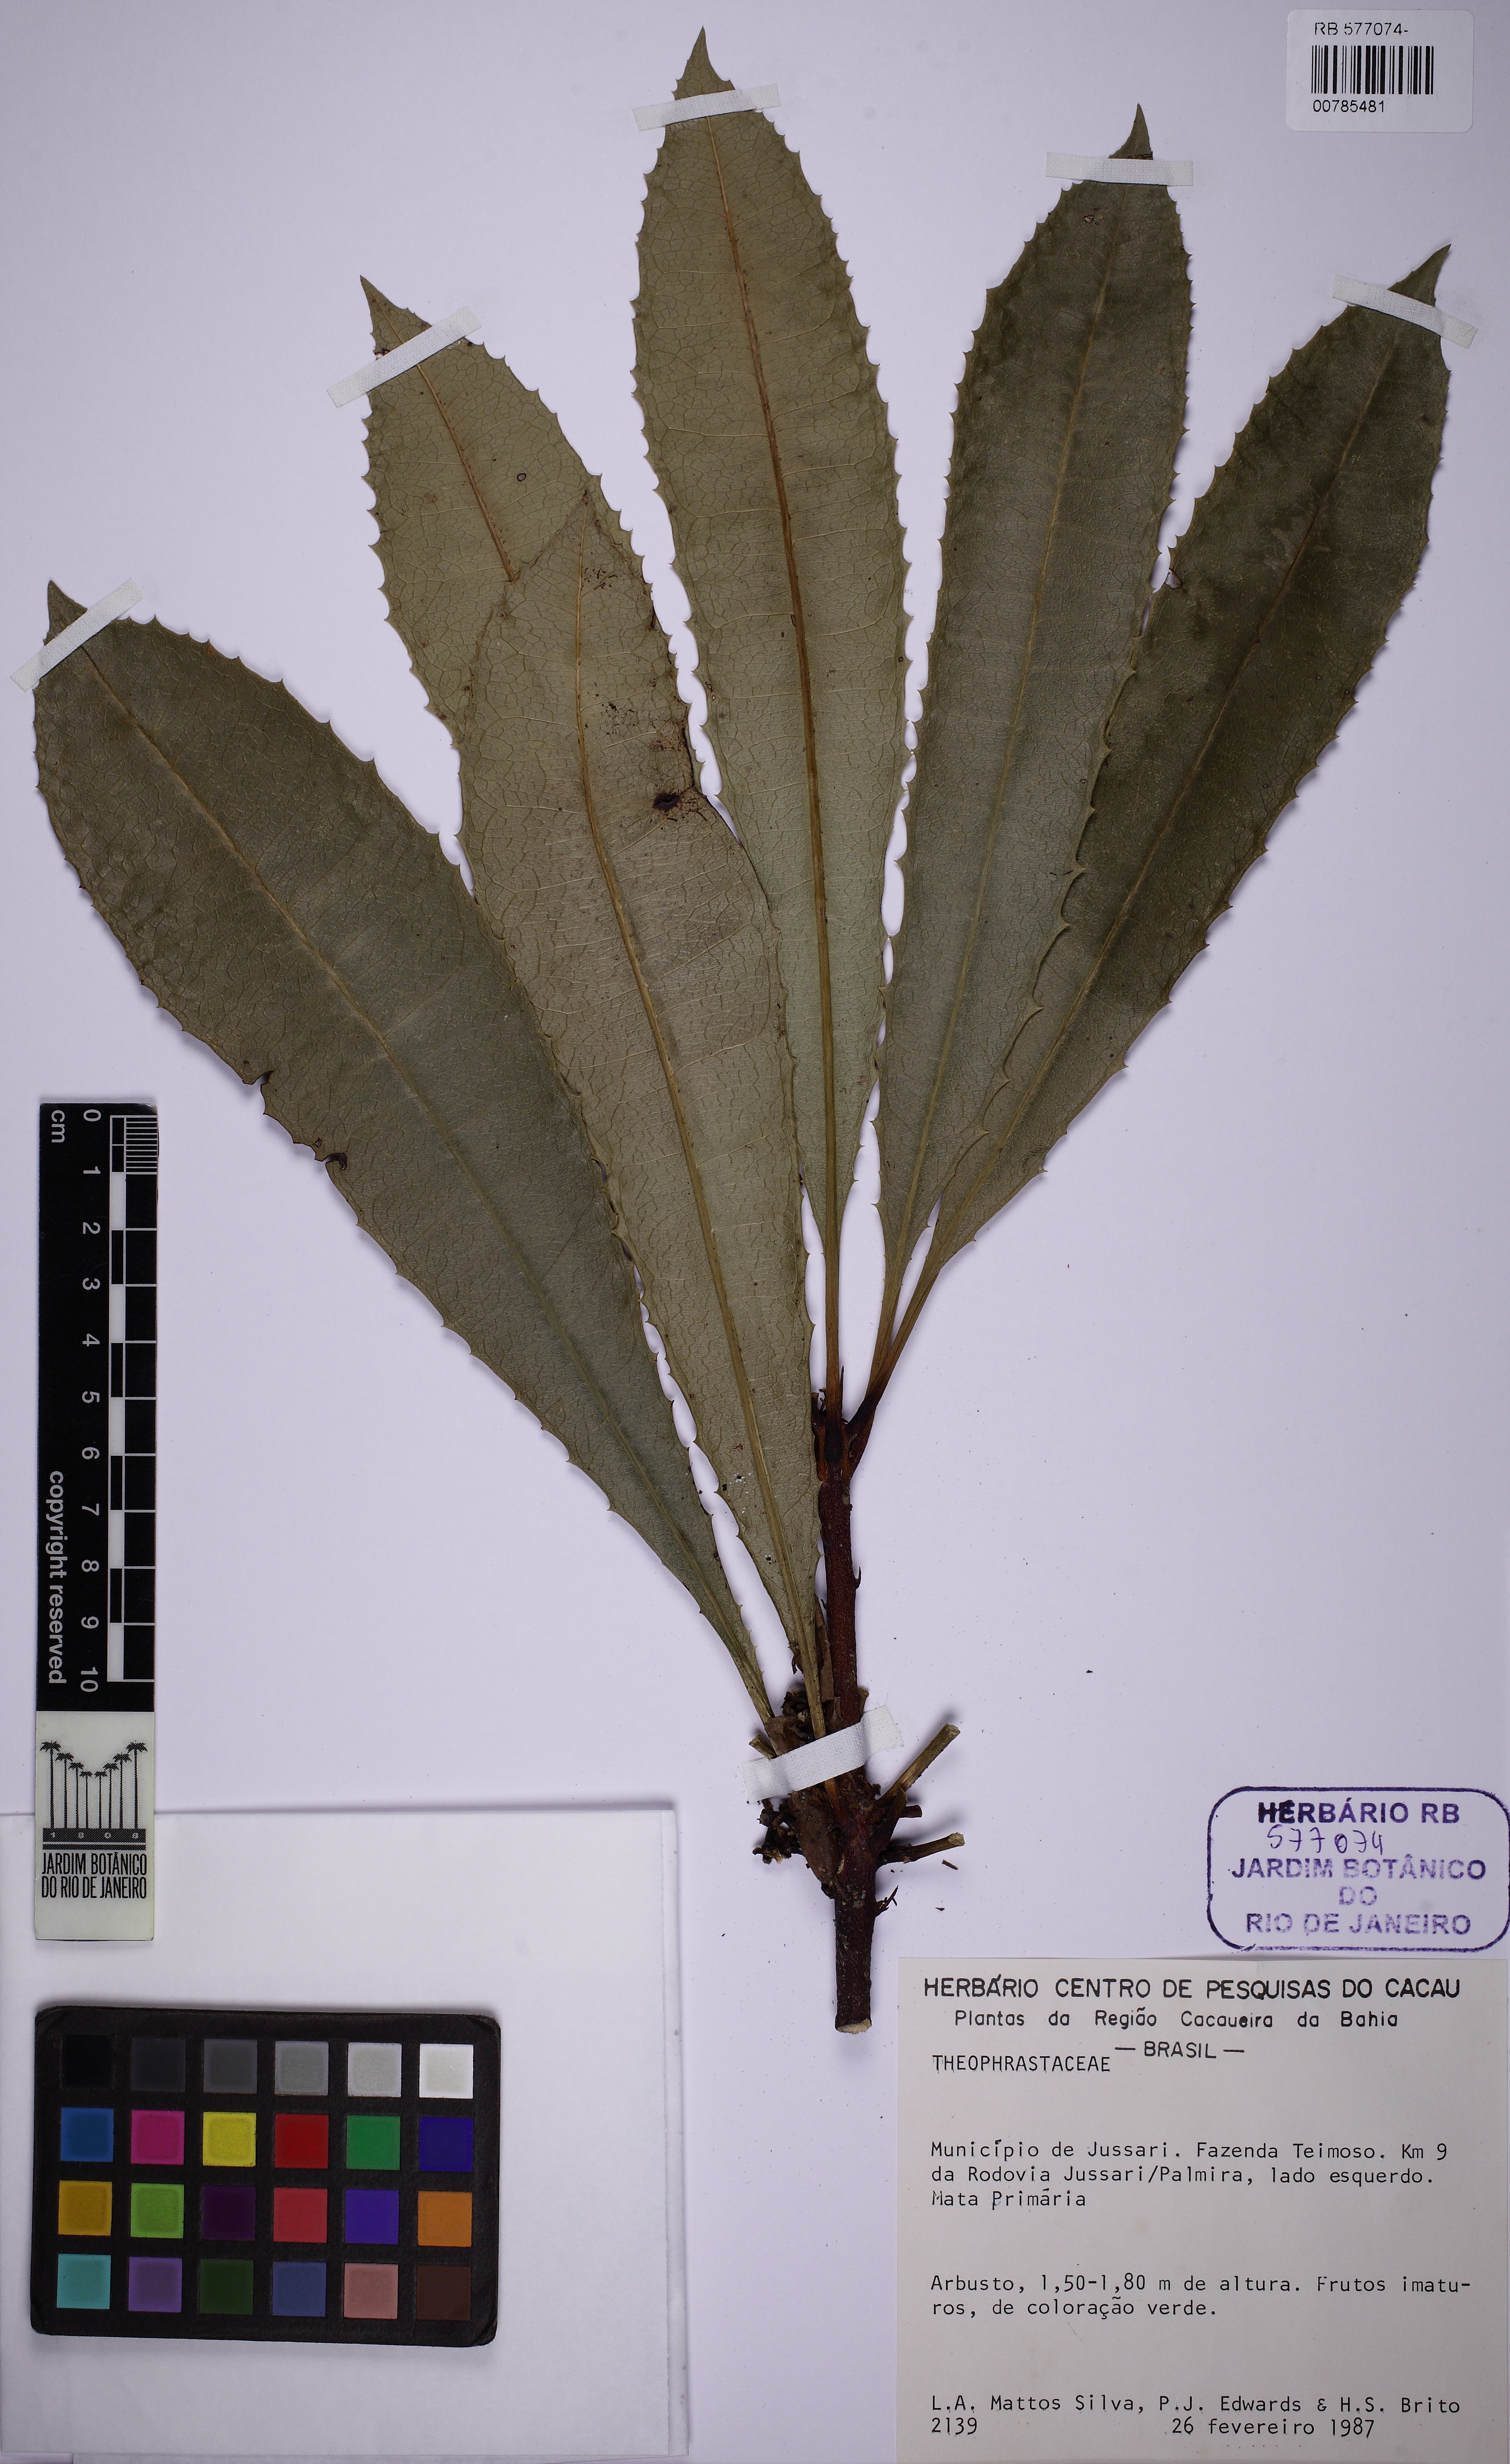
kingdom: Plantae
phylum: Tracheophyta
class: Magnoliopsida
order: Ericales
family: Primulaceae
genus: Clavija
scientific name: Clavija
